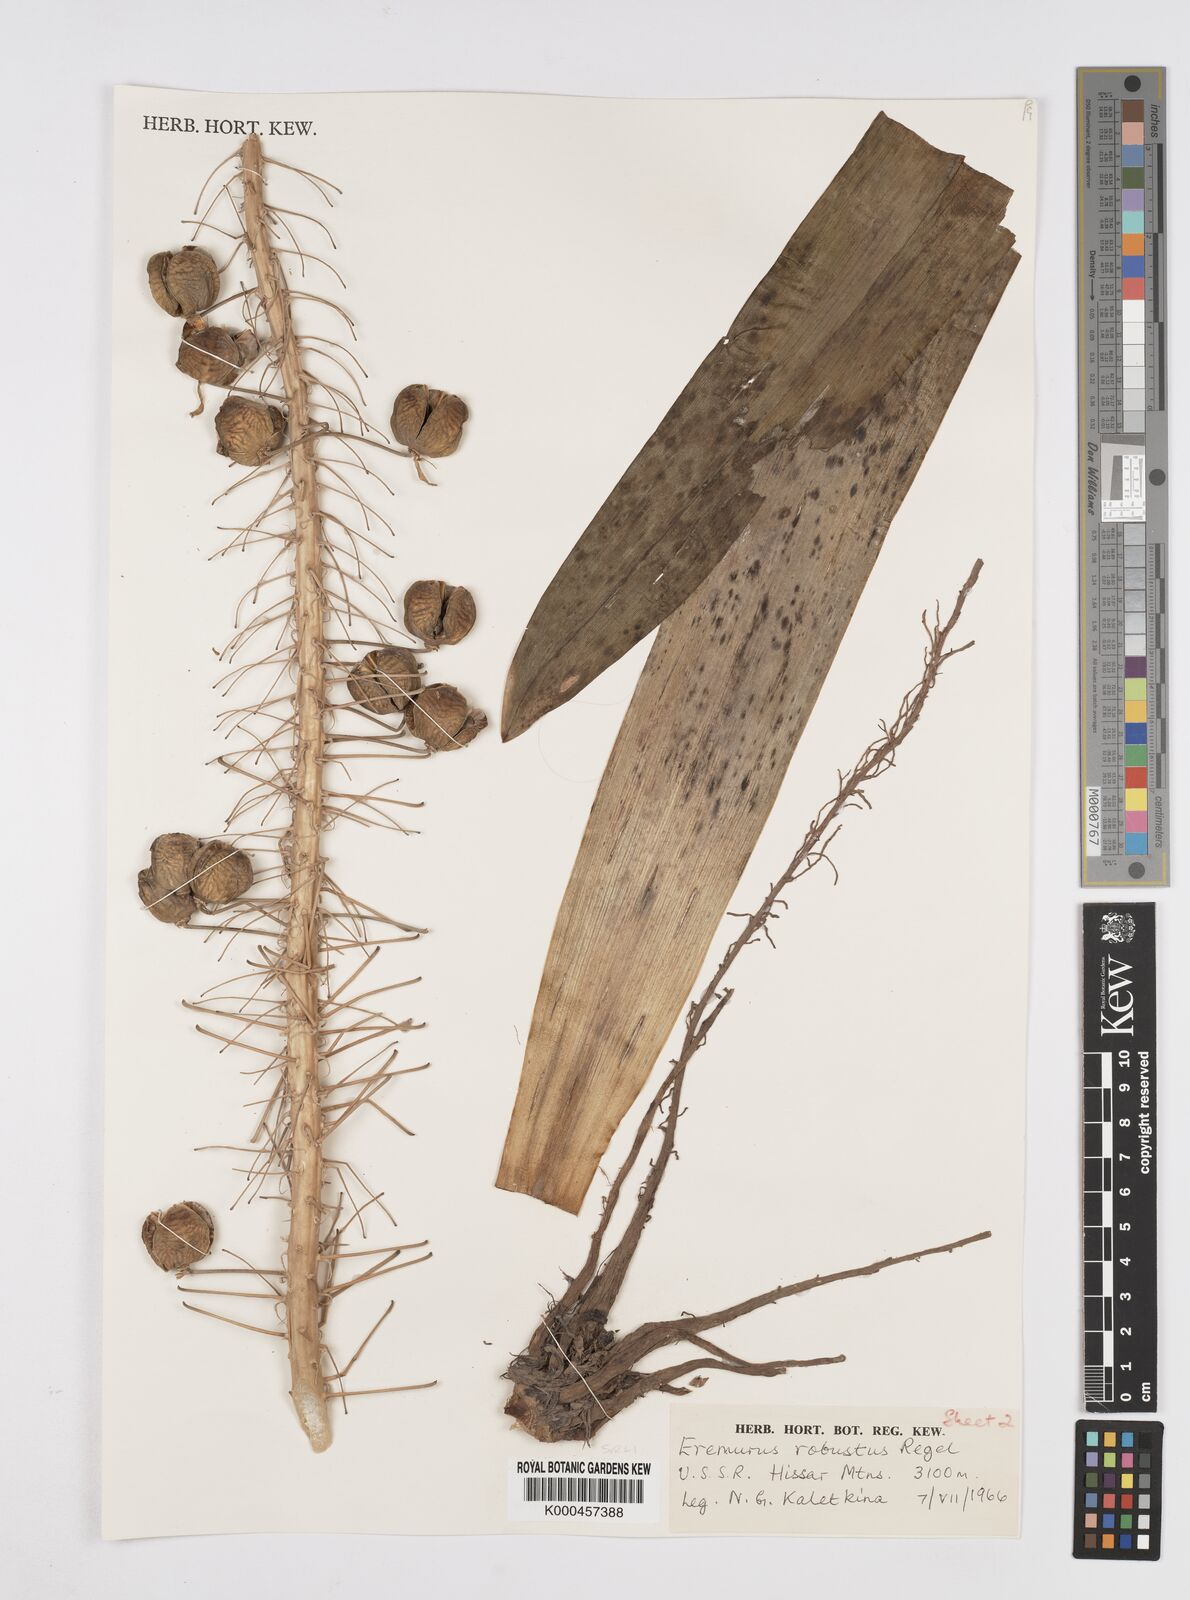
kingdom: Plantae
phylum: Tracheophyta
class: Liliopsida
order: Asparagales
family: Asphodelaceae
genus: Eremurus
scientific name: Eremurus robustus
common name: Foxtail lily
